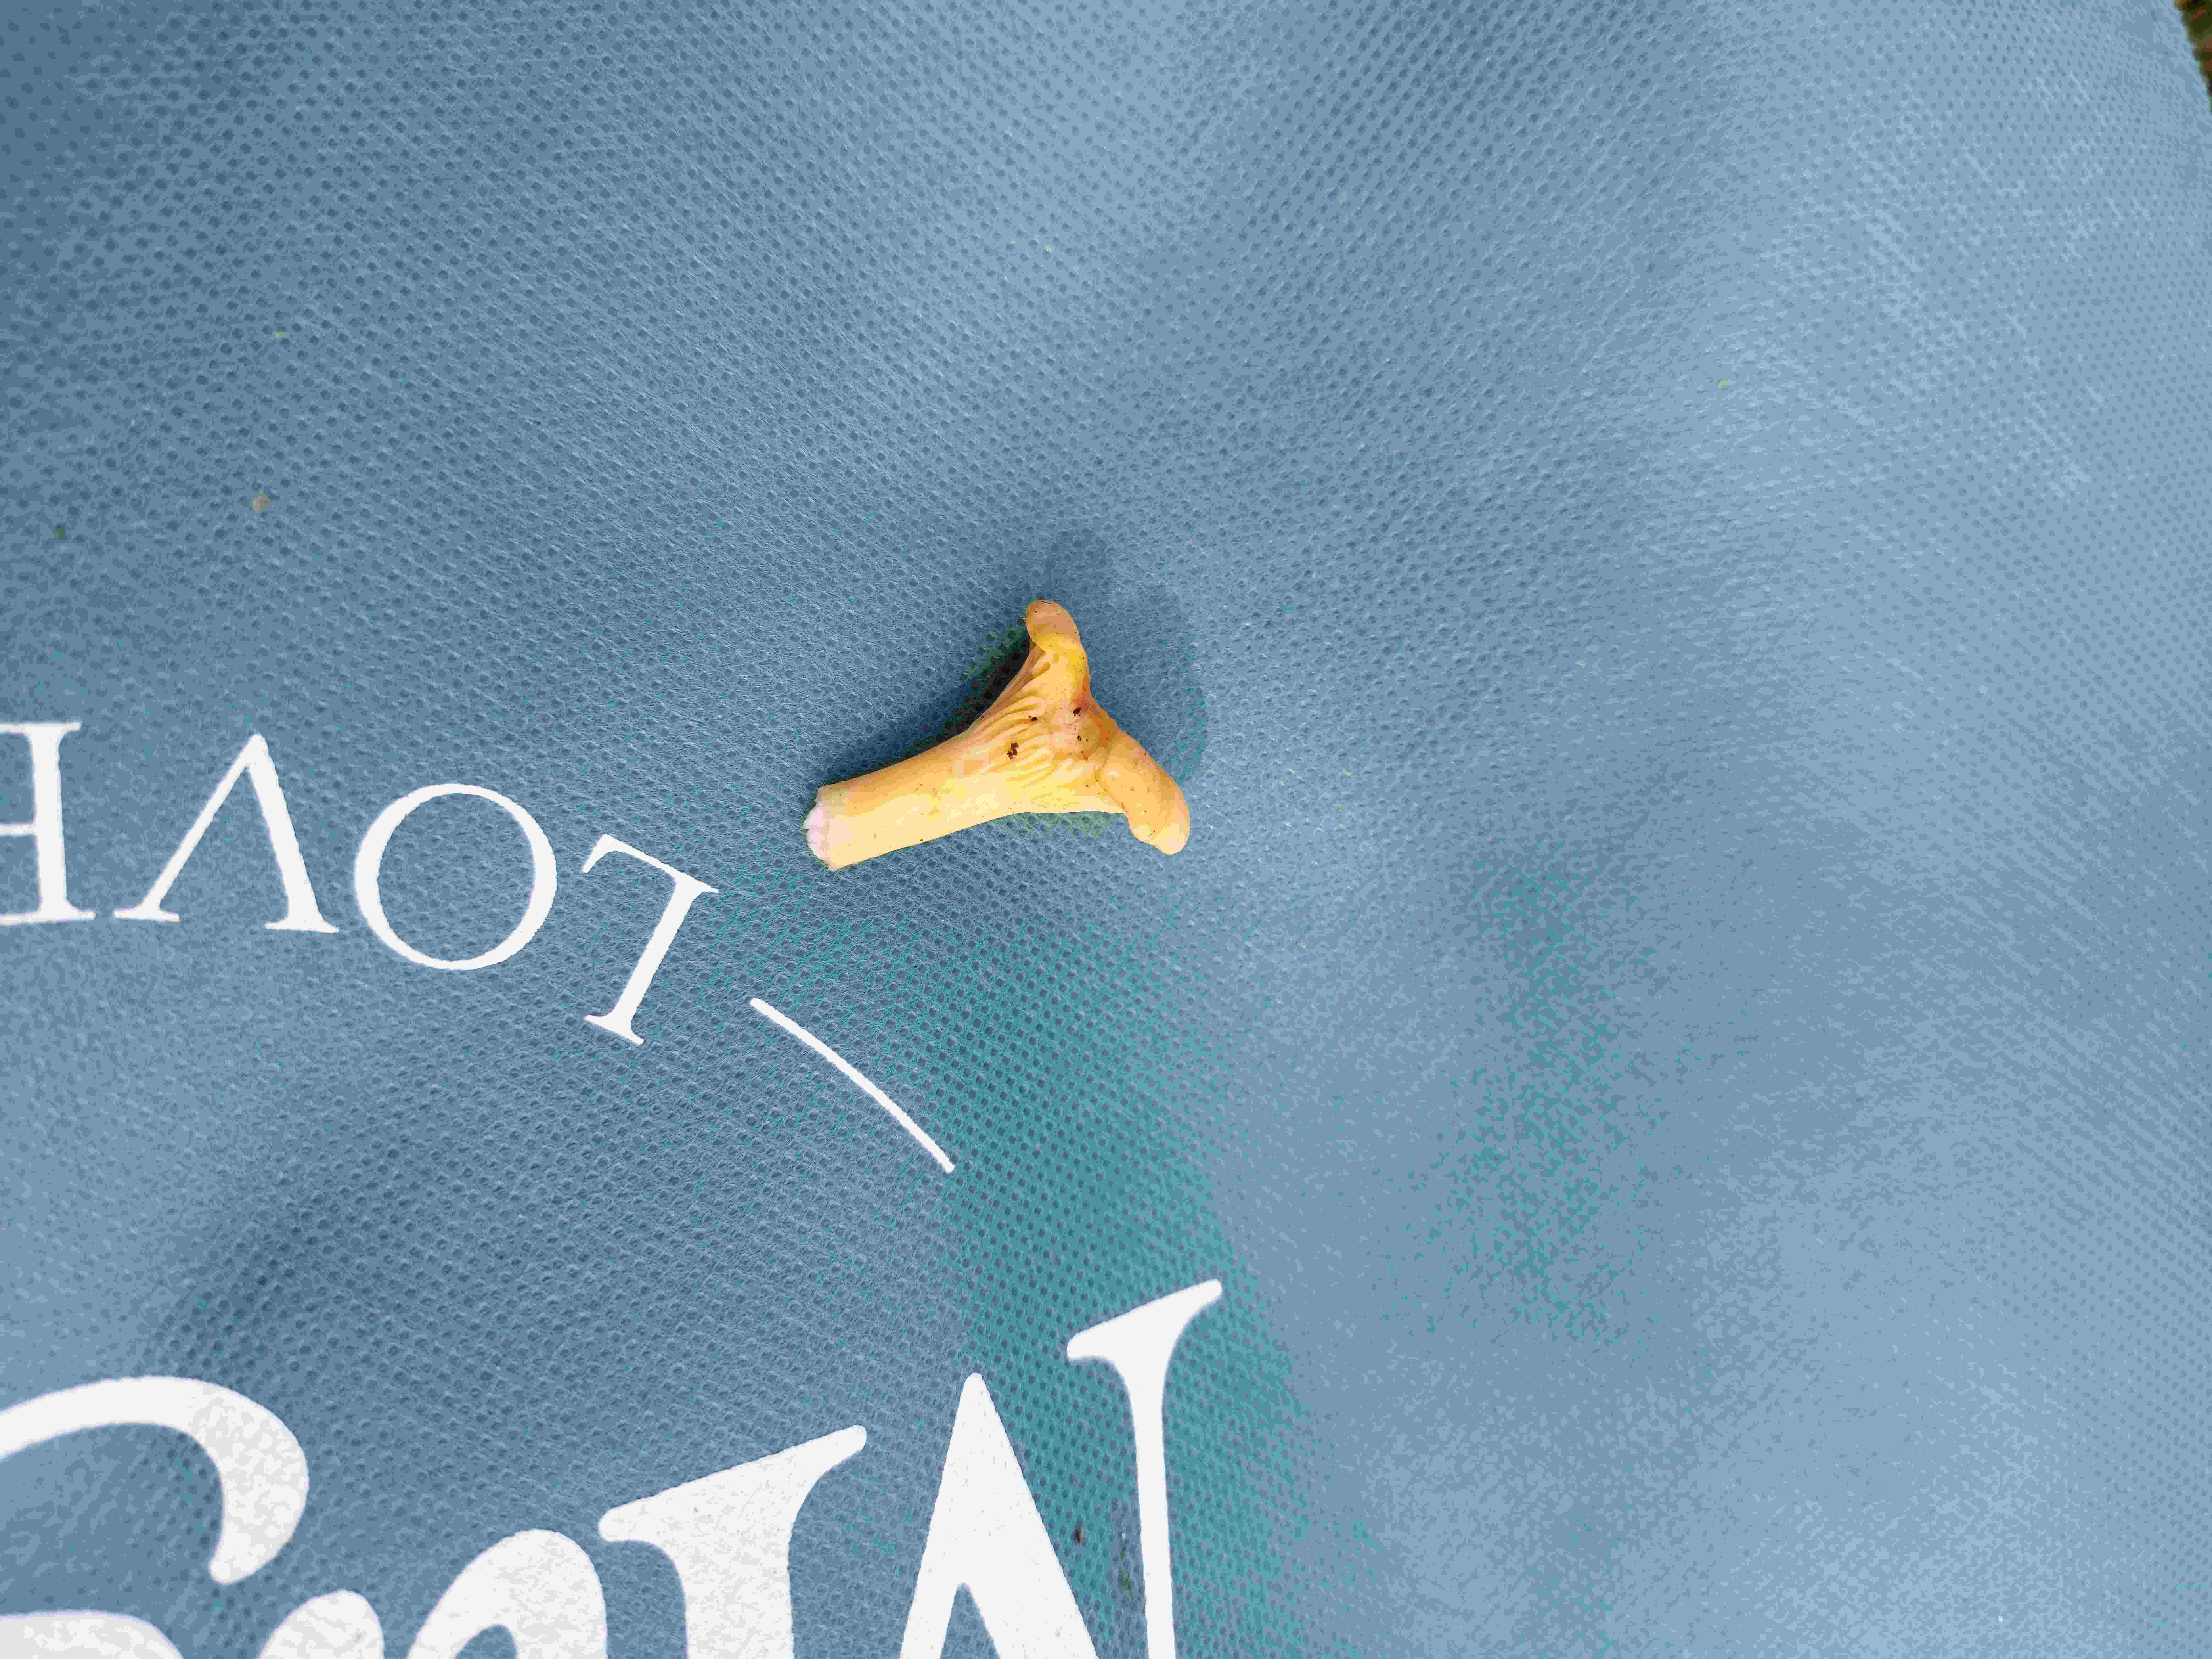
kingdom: Fungi
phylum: Basidiomycota
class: Agaricomycetes
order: Cantharellales
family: Hydnaceae
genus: Cantharellus
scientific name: Cantharellus cibarius
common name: almindelig kantarel
